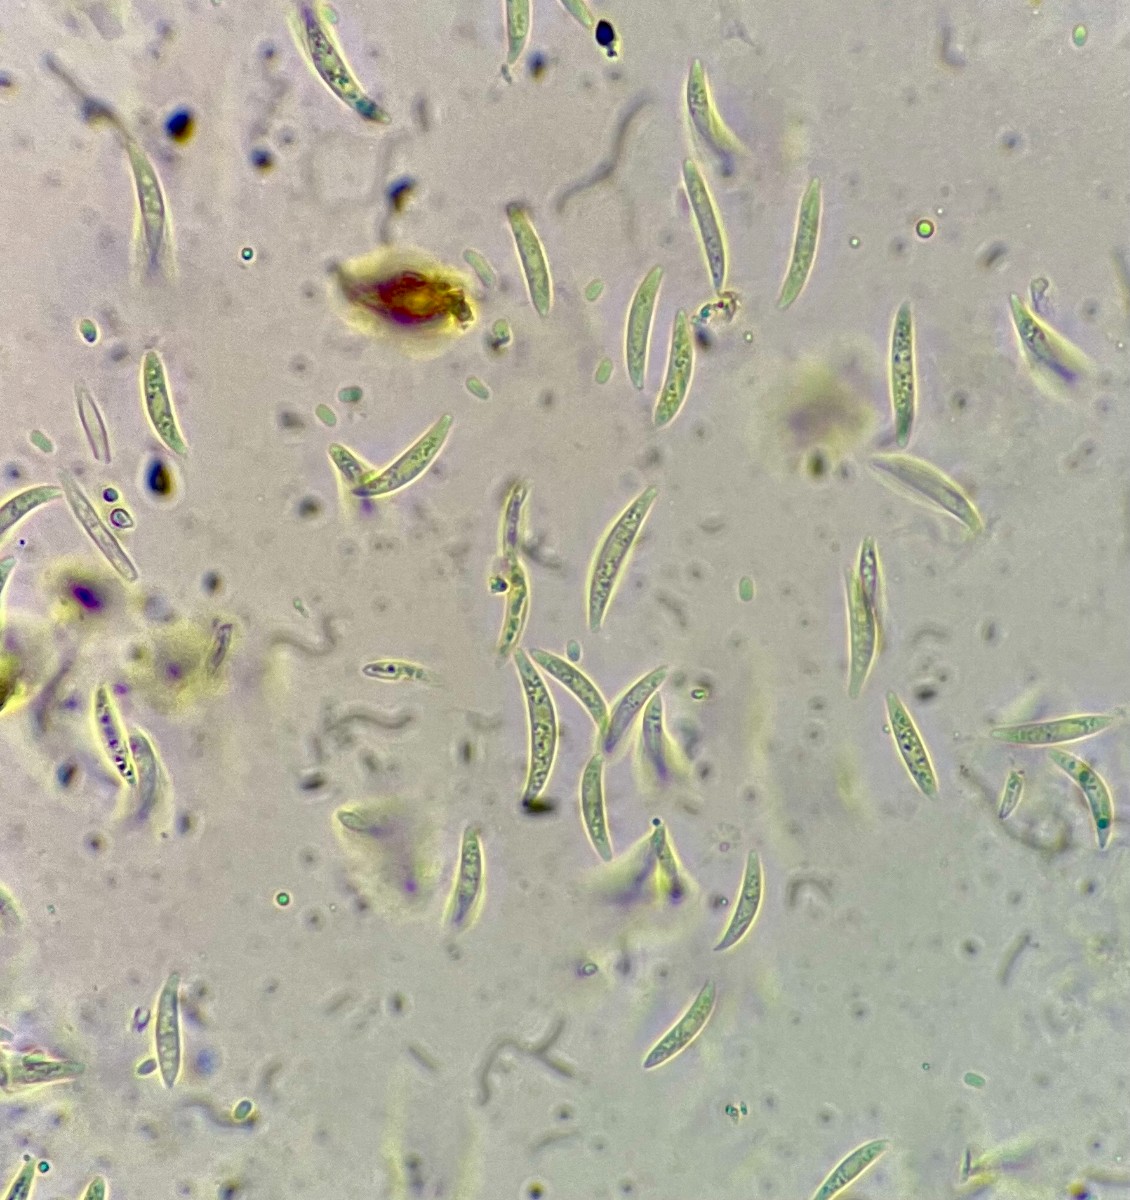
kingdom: Fungi
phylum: Ascomycota
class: Leotiomycetes
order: Helotiales
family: Dermateaceae
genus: Dermea
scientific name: Dermea ariae
